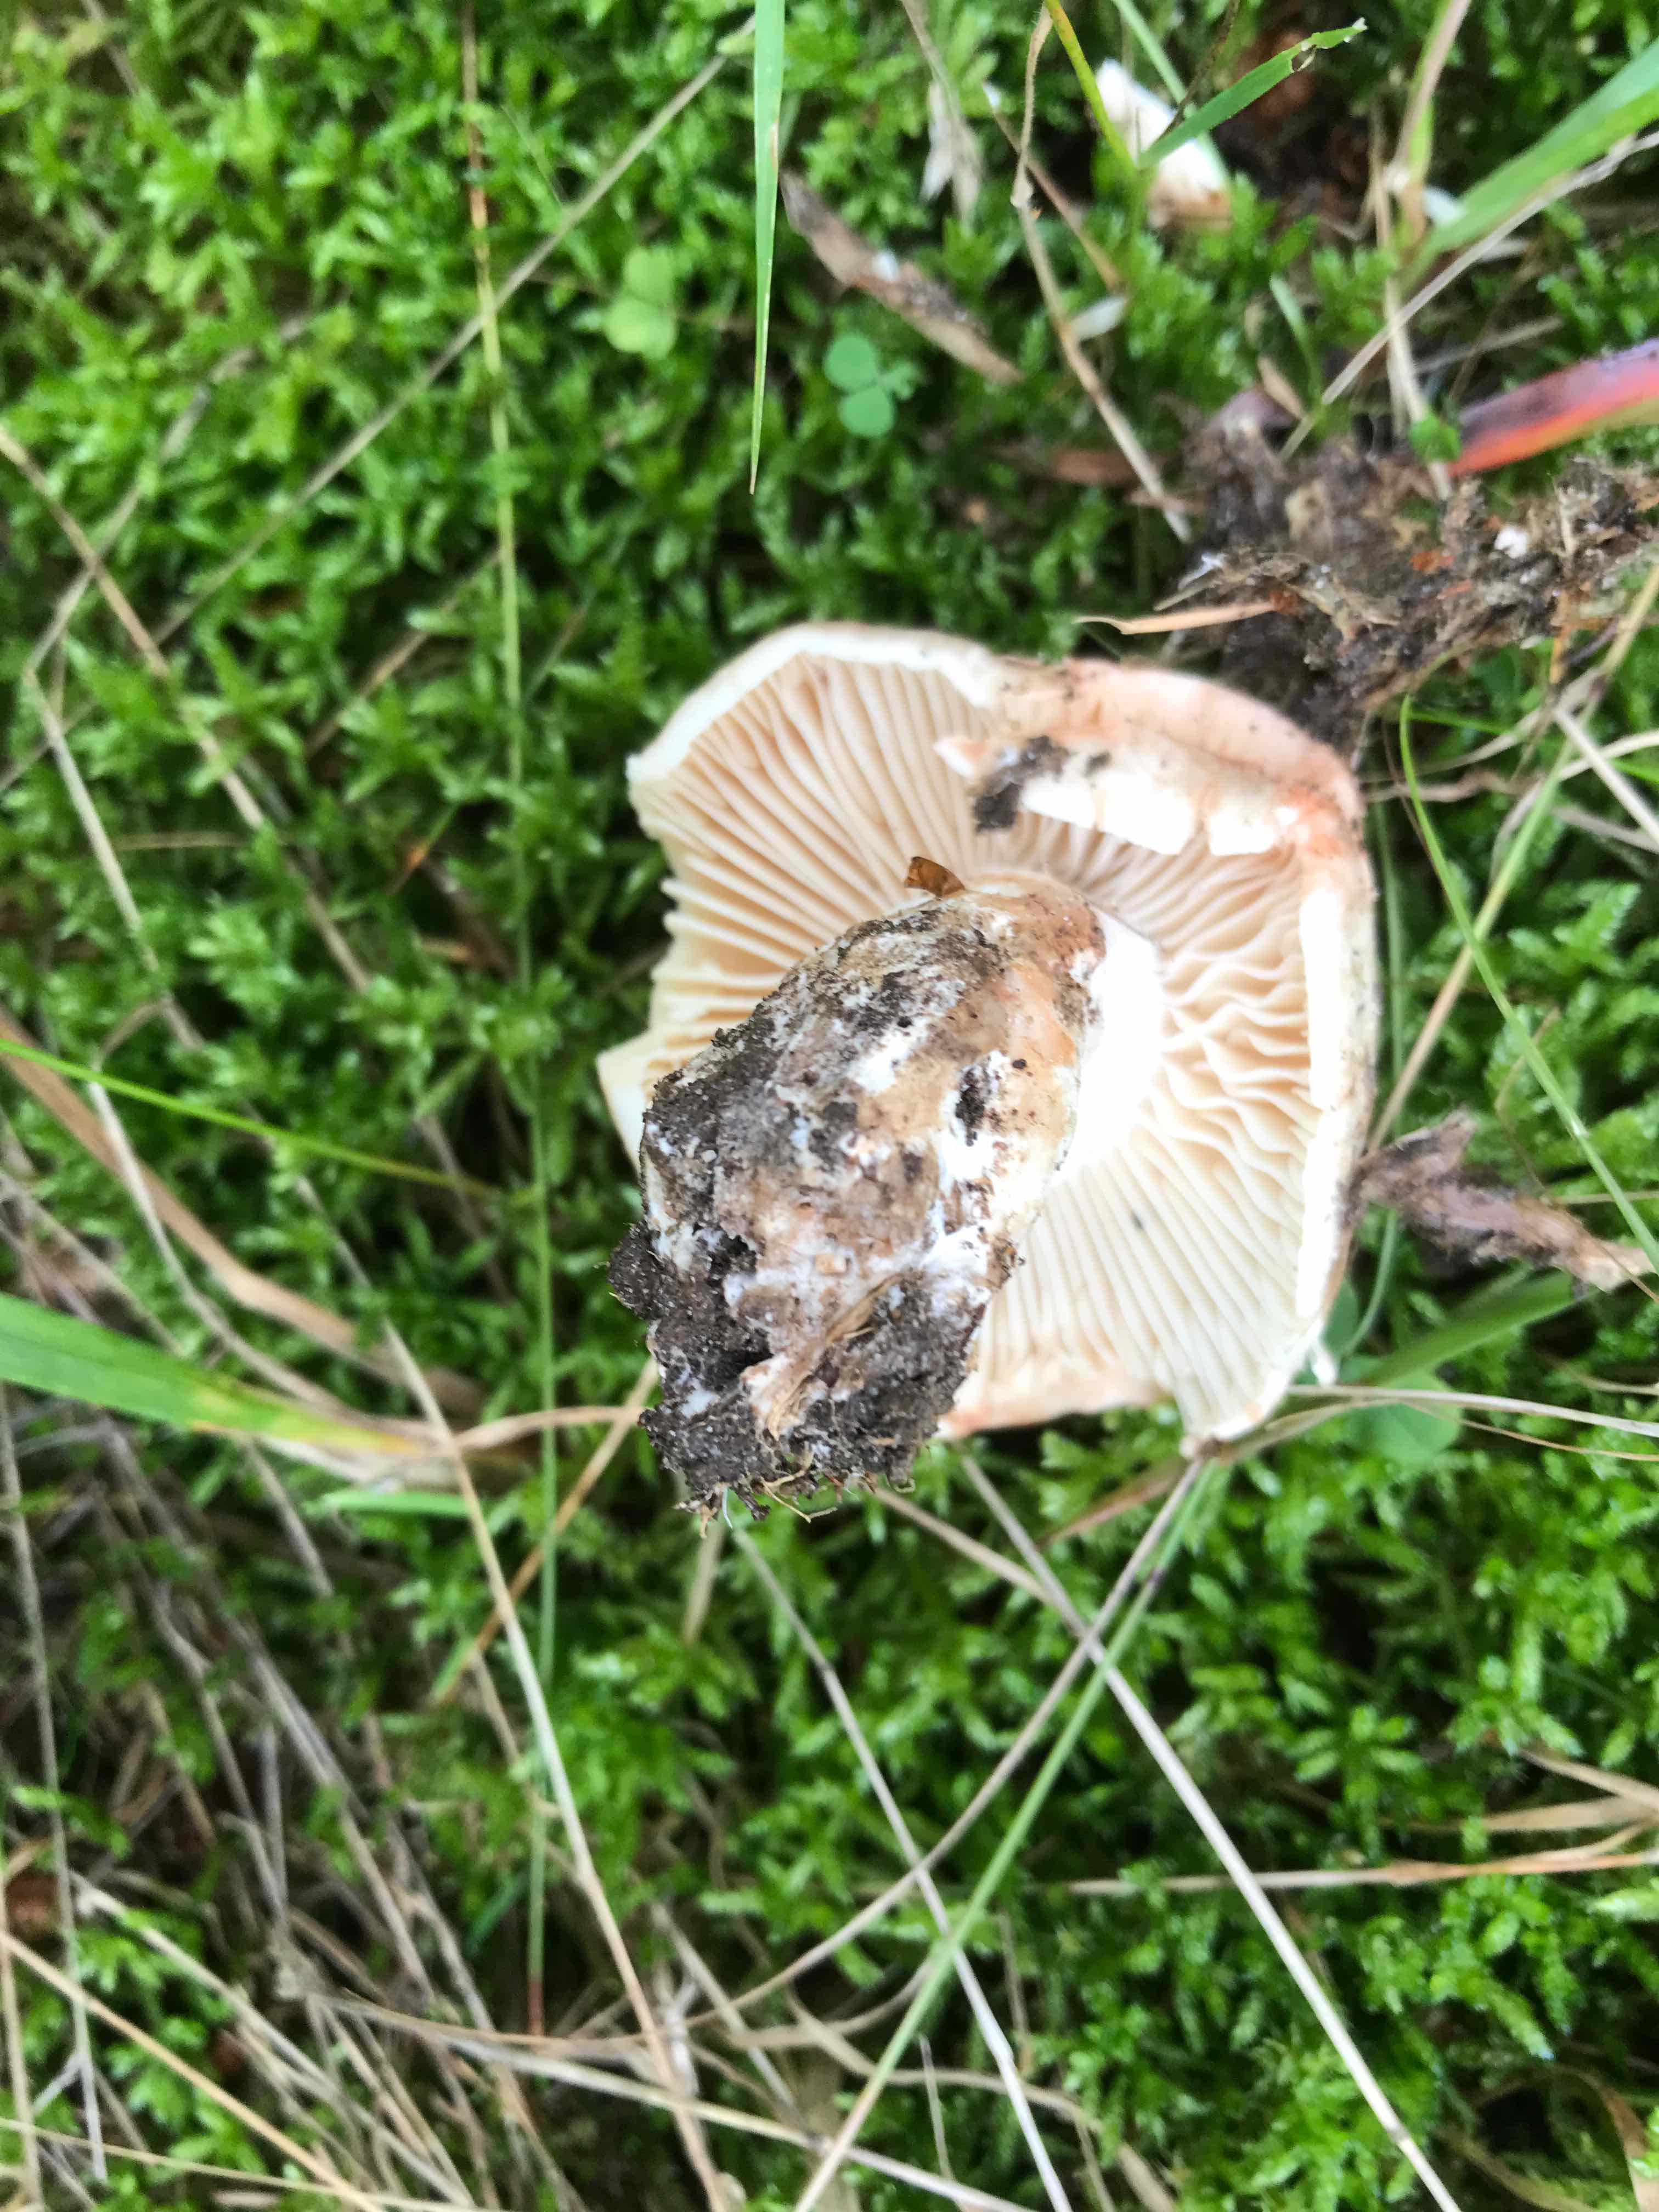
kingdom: Fungi
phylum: Basidiomycota
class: Agaricomycetes
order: Russulales
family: Russulaceae
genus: Russula
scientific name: Russula adusta
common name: sværtende skørhat
